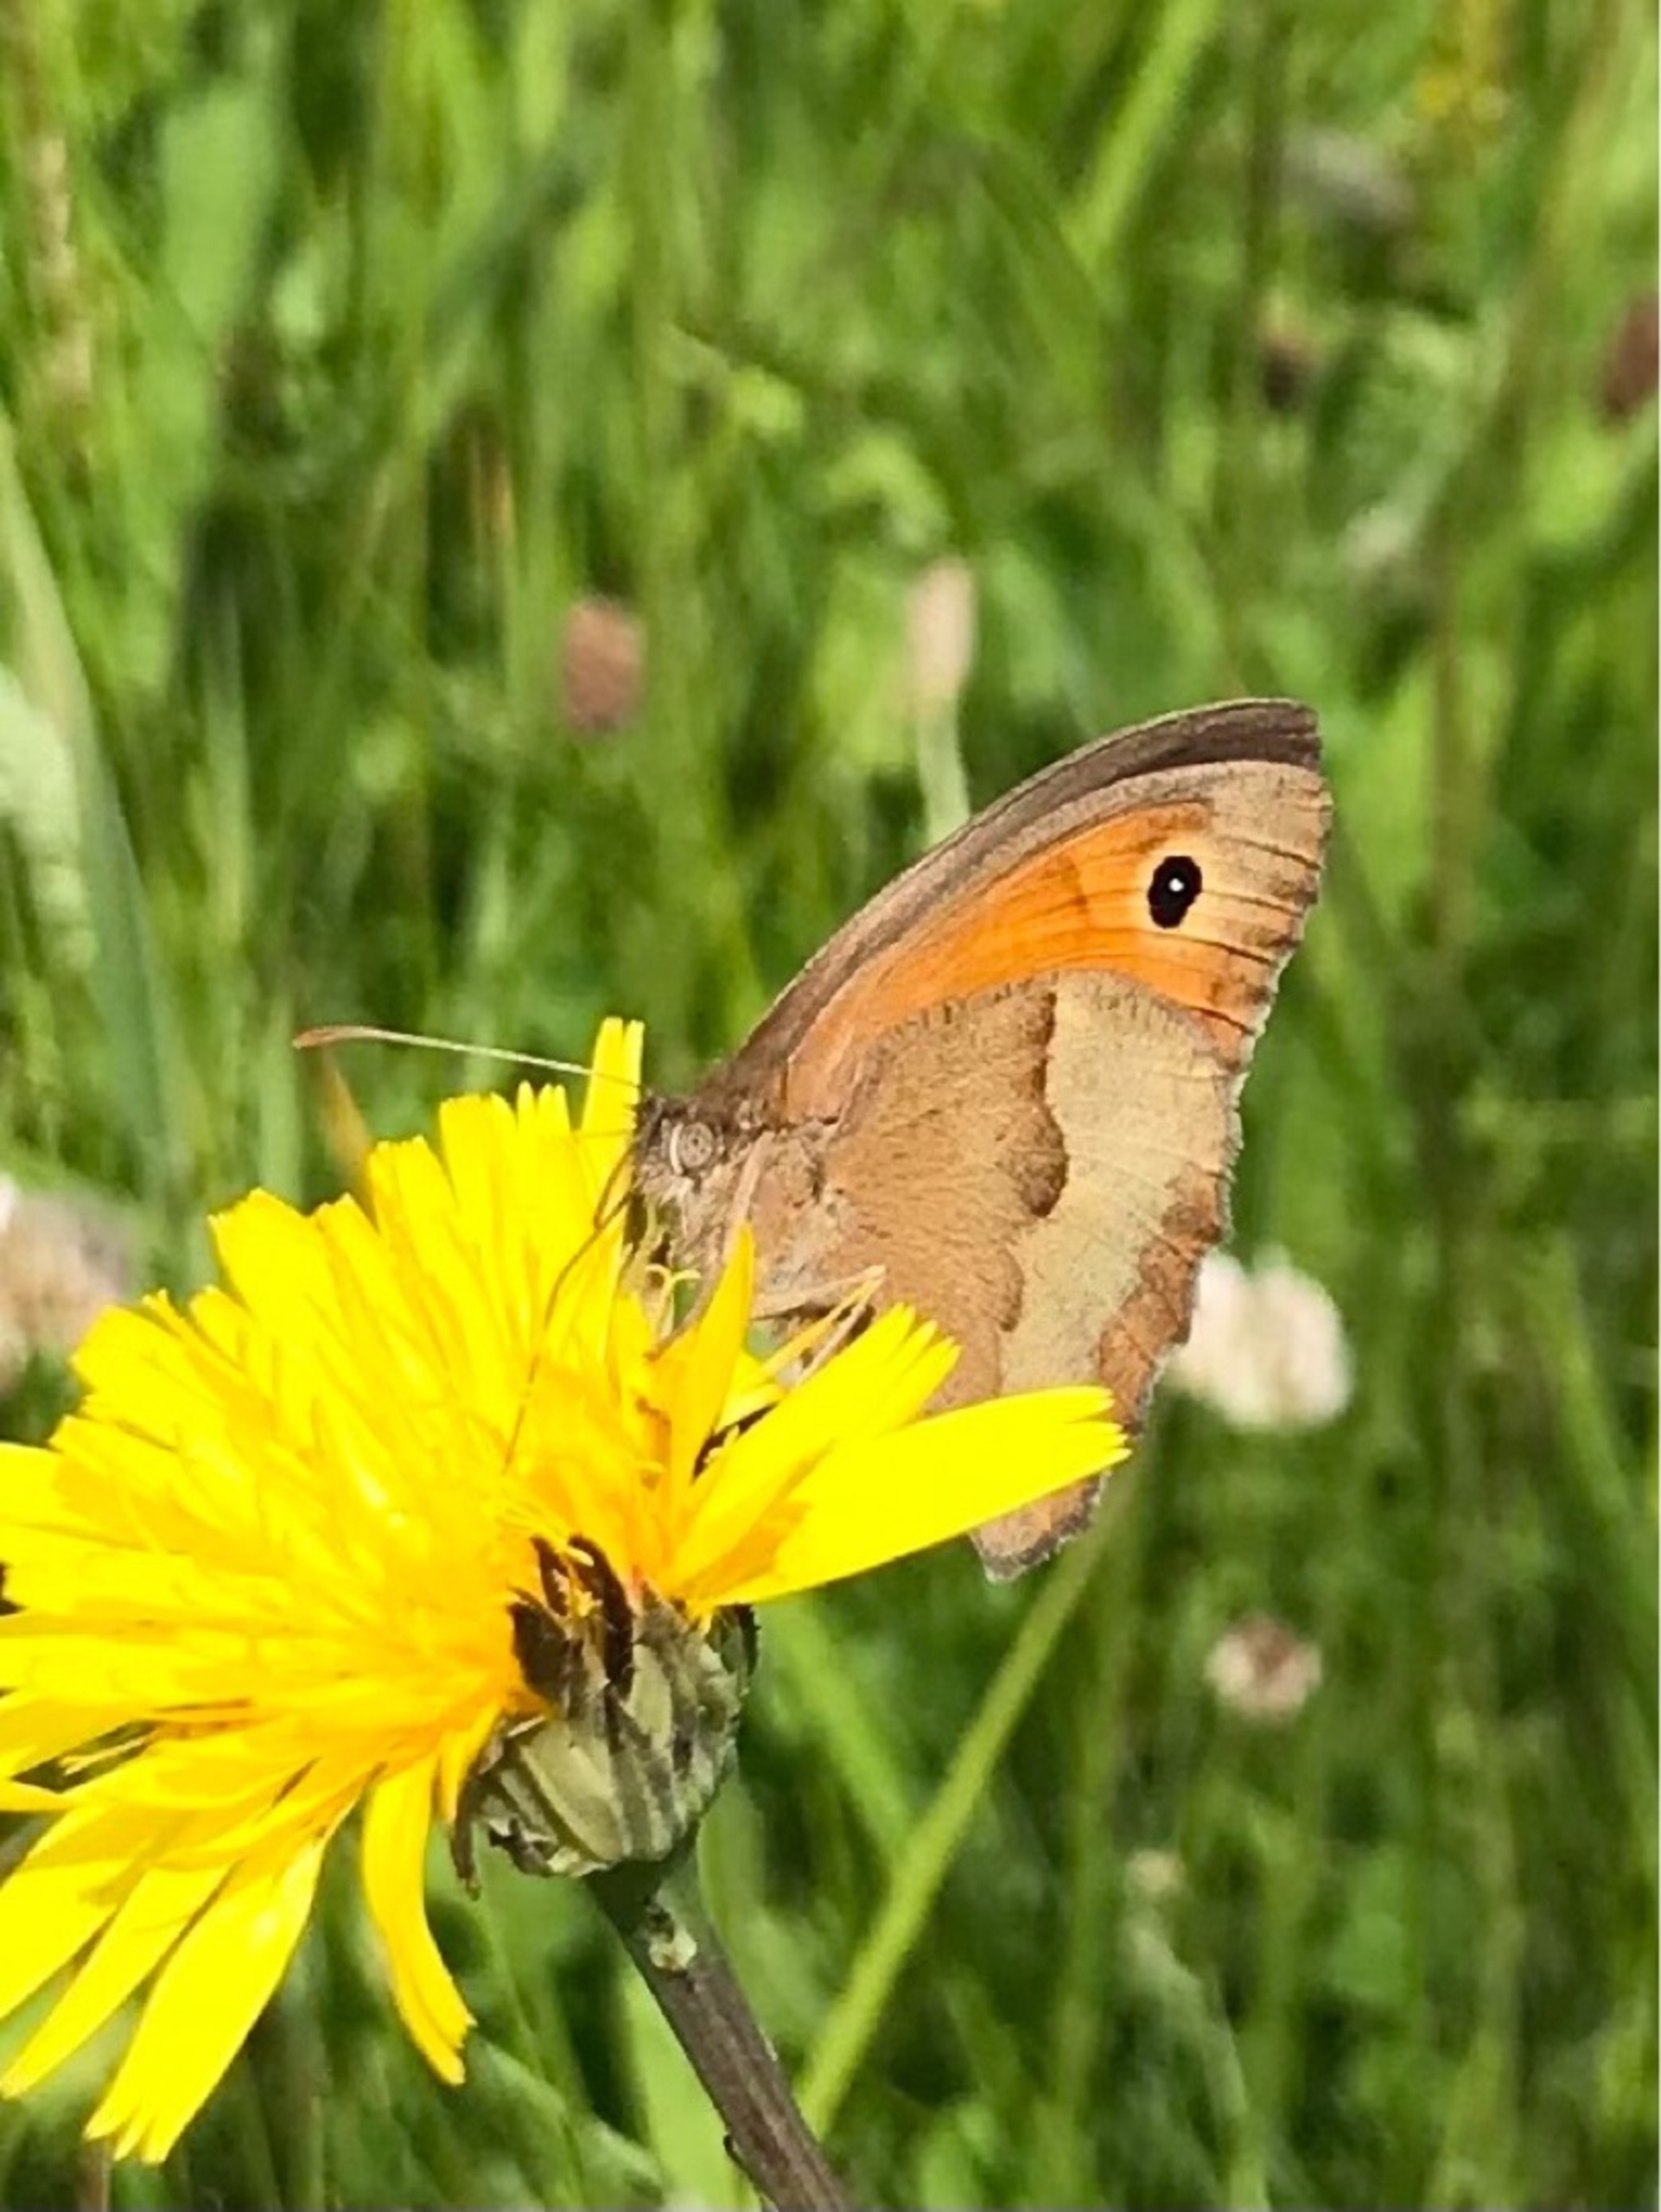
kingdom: Animalia
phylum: Arthropoda
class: Insecta
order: Lepidoptera
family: Nymphalidae
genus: Maniola
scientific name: Maniola jurtina
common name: Græsrandøje
